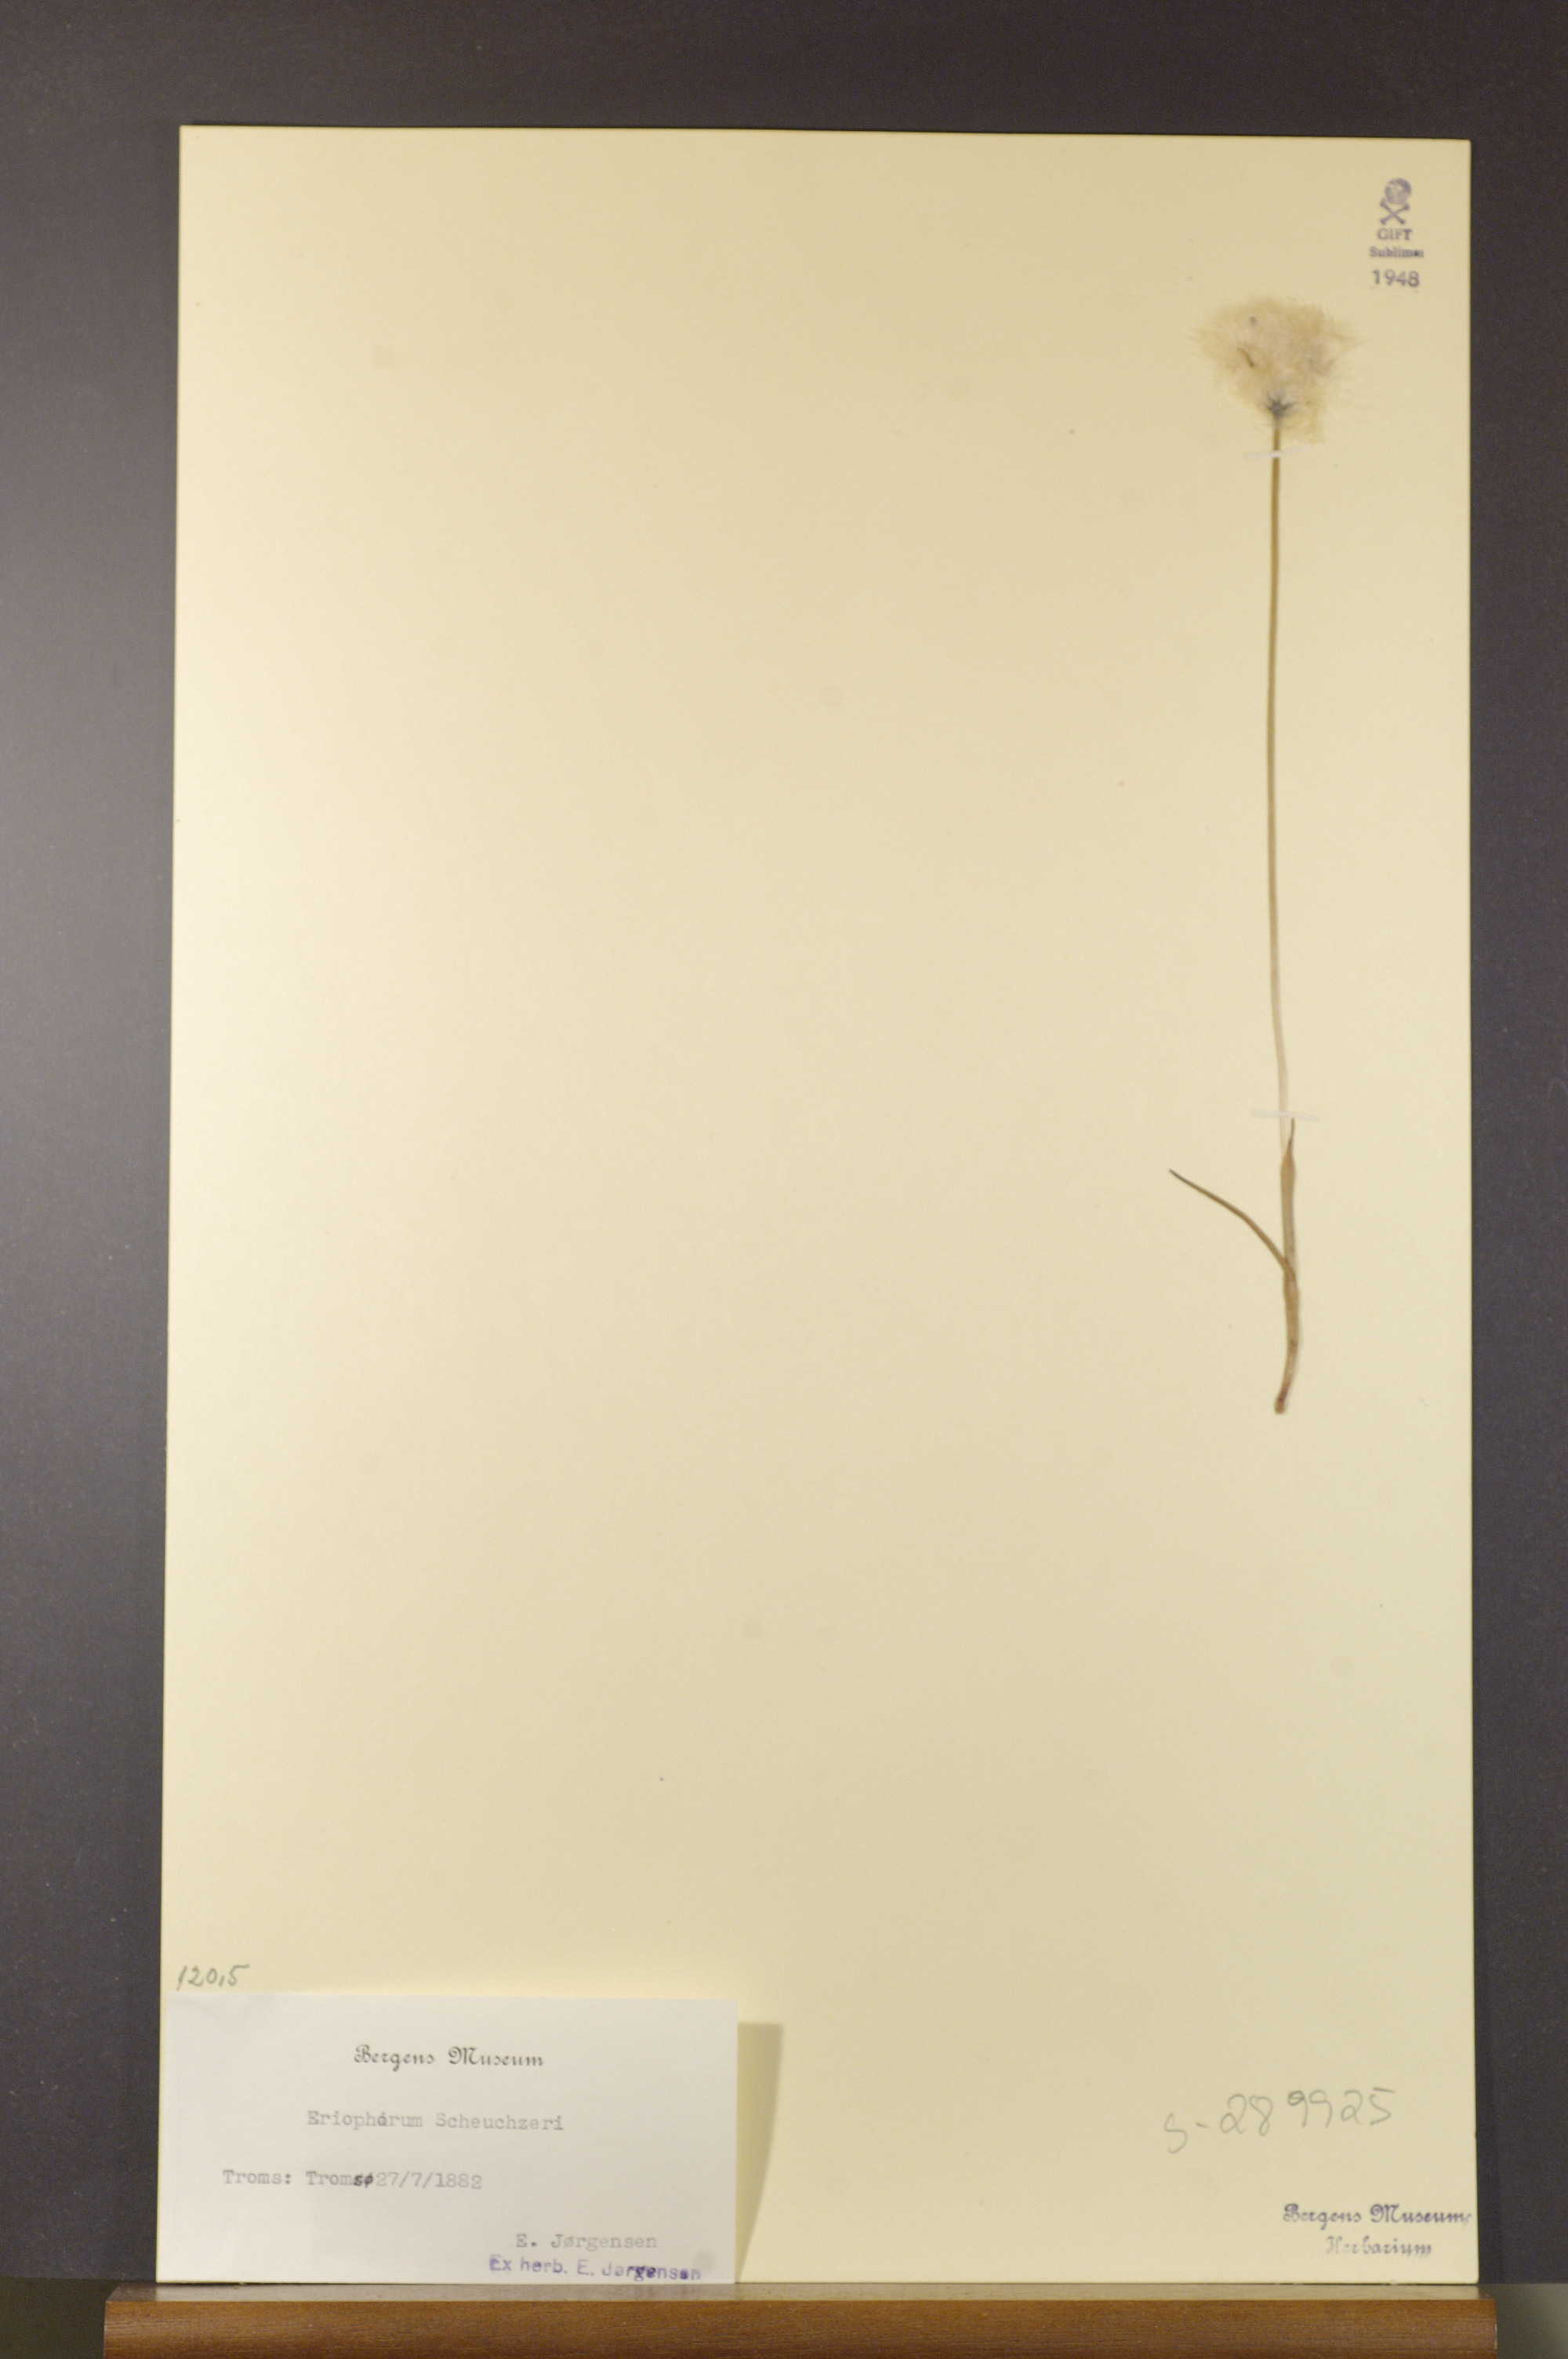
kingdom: Plantae
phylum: Tracheophyta
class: Liliopsida
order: Poales
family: Cyperaceae
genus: Eriophorum
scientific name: Eriophorum scheuchzeri
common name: Scheuchzer's cottongrass
